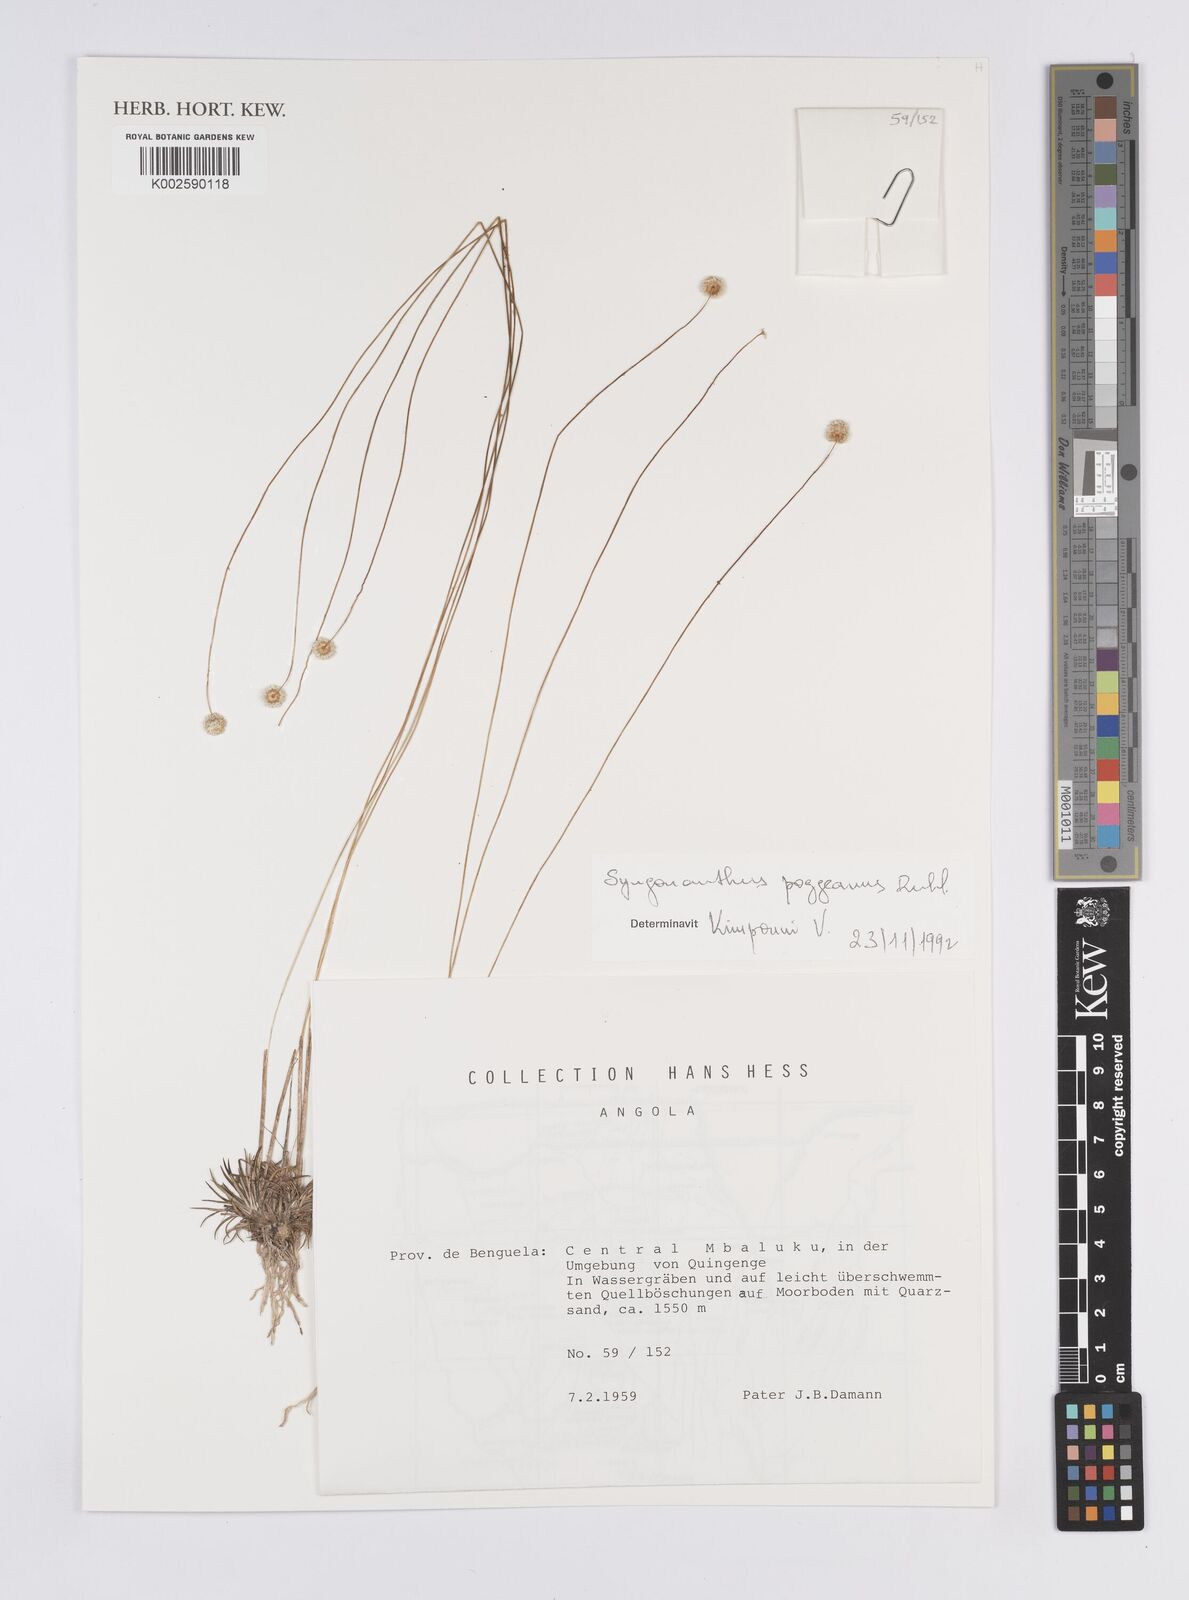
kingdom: Plantae
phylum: Tracheophyta
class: Liliopsida
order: Poales
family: Eriocaulaceae
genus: Syngonanthus
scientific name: Syngonanthus poggeanus
